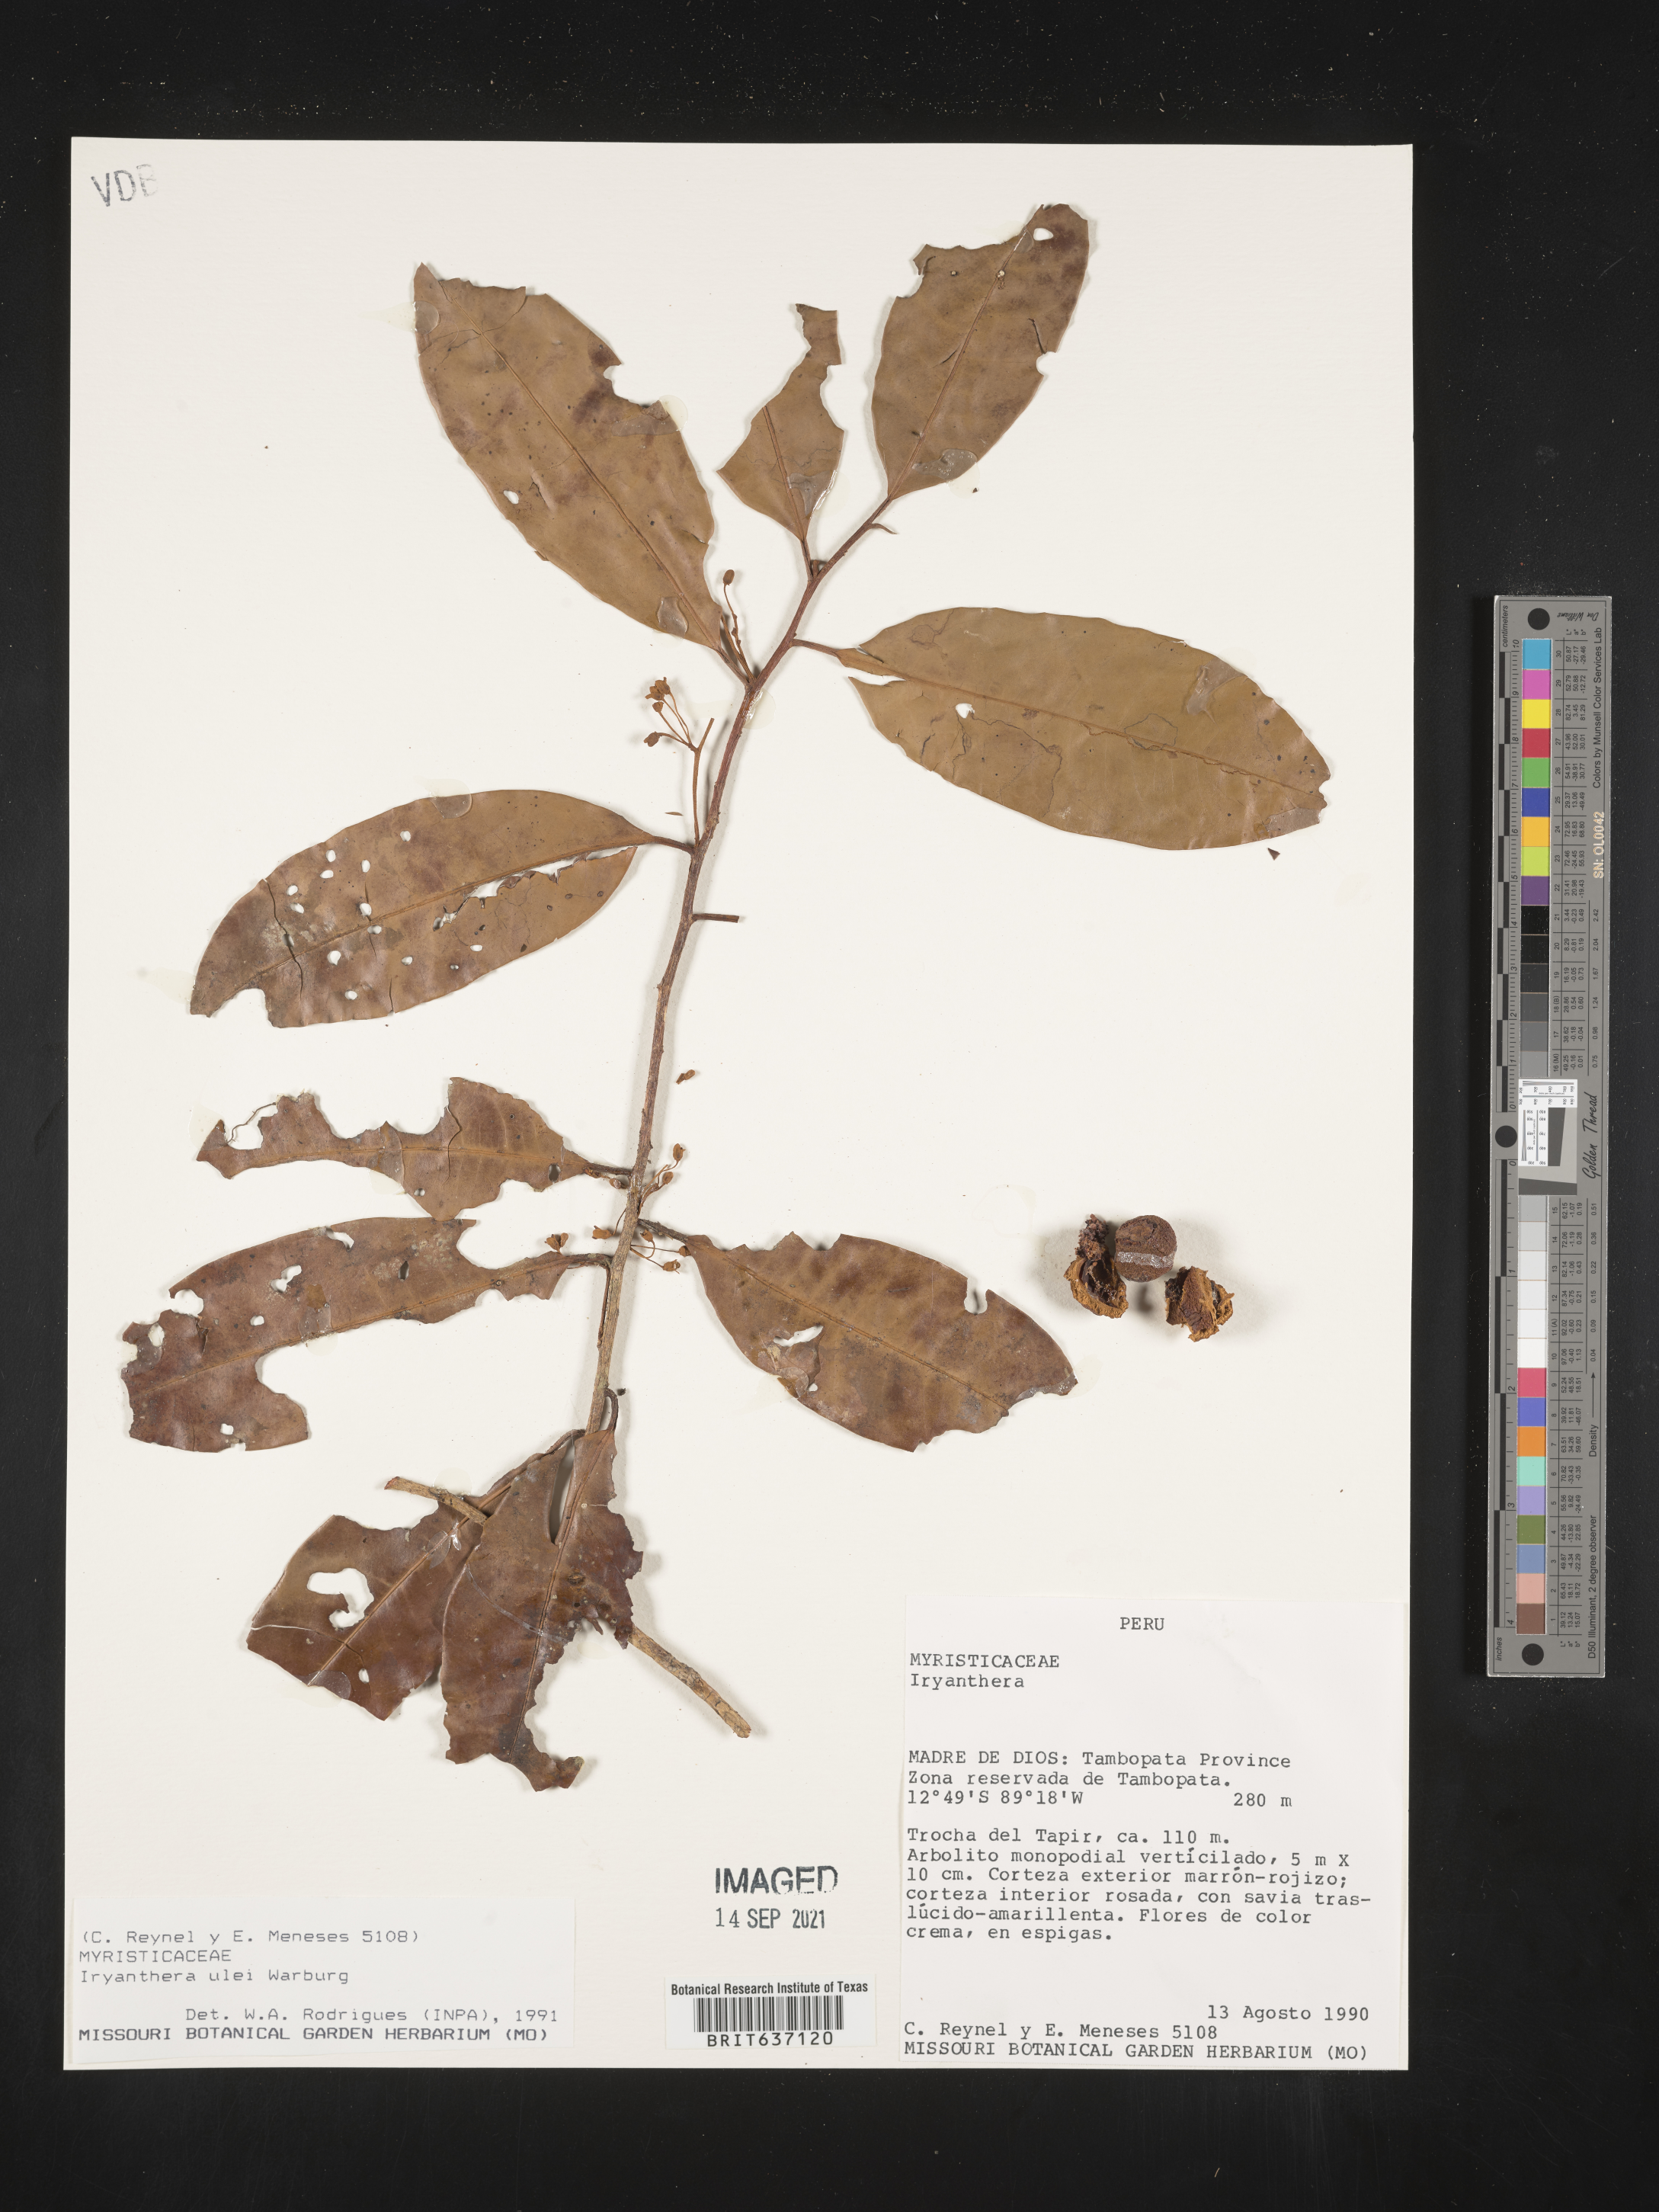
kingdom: Plantae
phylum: Tracheophyta
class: Magnoliopsida
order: Magnoliales
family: Myristicaceae
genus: Iryanthera
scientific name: Iryanthera
